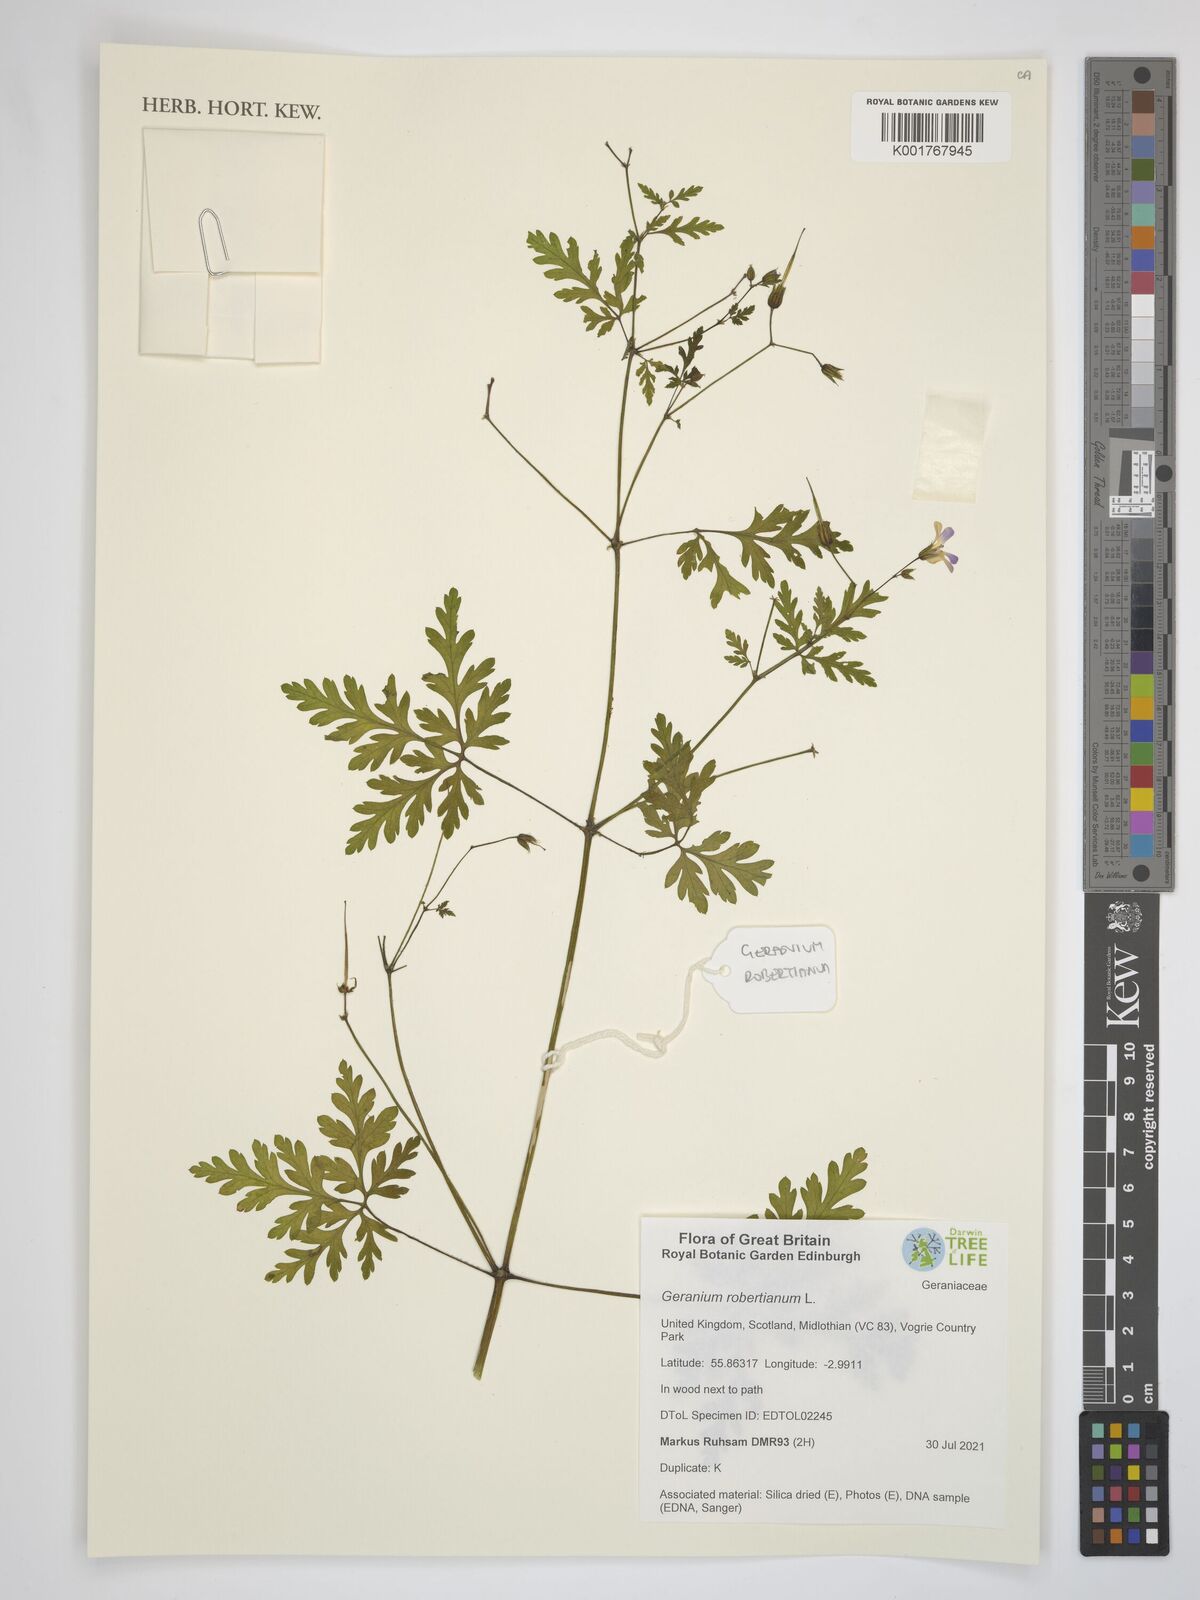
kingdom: Plantae
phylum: Tracheophyta
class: Magnoliopsida
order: Geraniales
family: Geraniaceae
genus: Geranium
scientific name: Geranium robertianum
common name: Herb-robert
